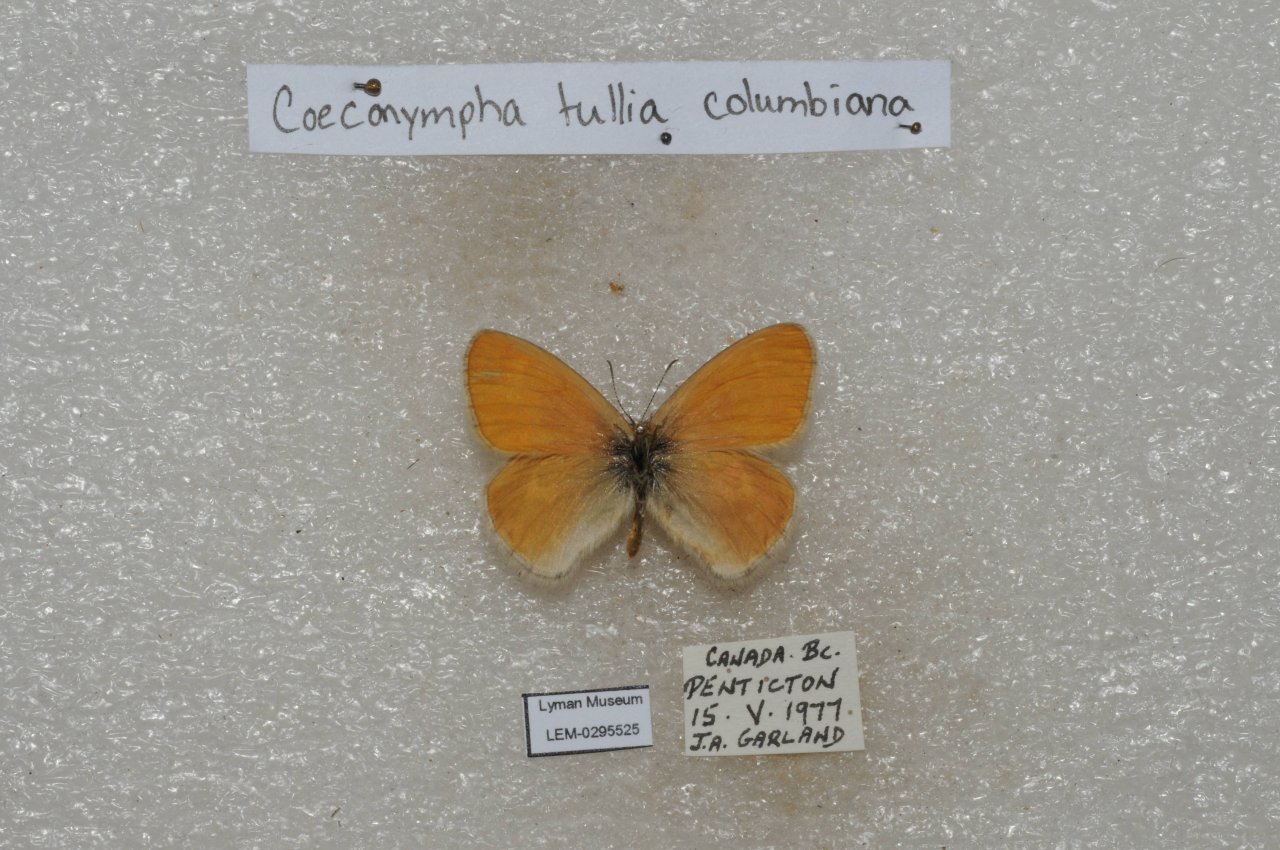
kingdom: Animalia
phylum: Arthropoda
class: Insecta
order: Lepidoptera
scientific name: Lepidoptera
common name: Butterflies
